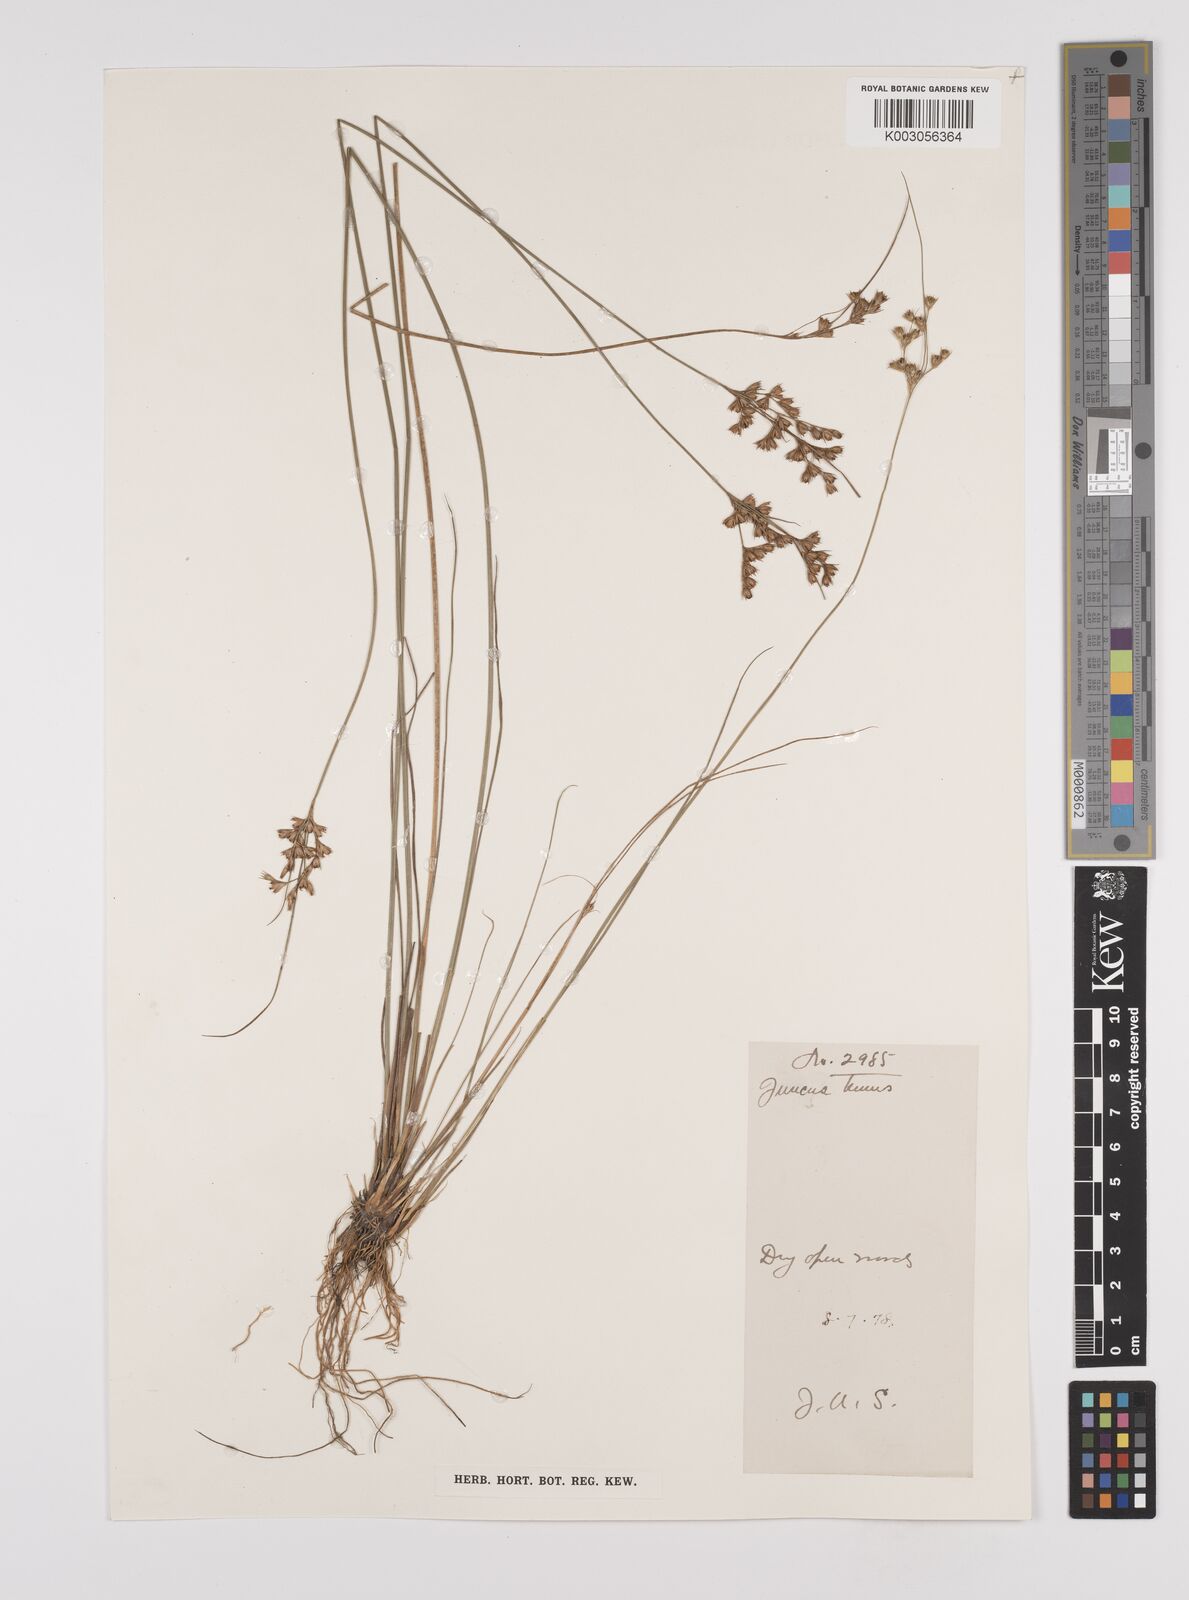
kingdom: Plantae
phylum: Tracheophyta
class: Liliopsida
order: Poales
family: Juncaceae
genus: Juncus
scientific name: Juncus tenuis
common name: Slender rush
